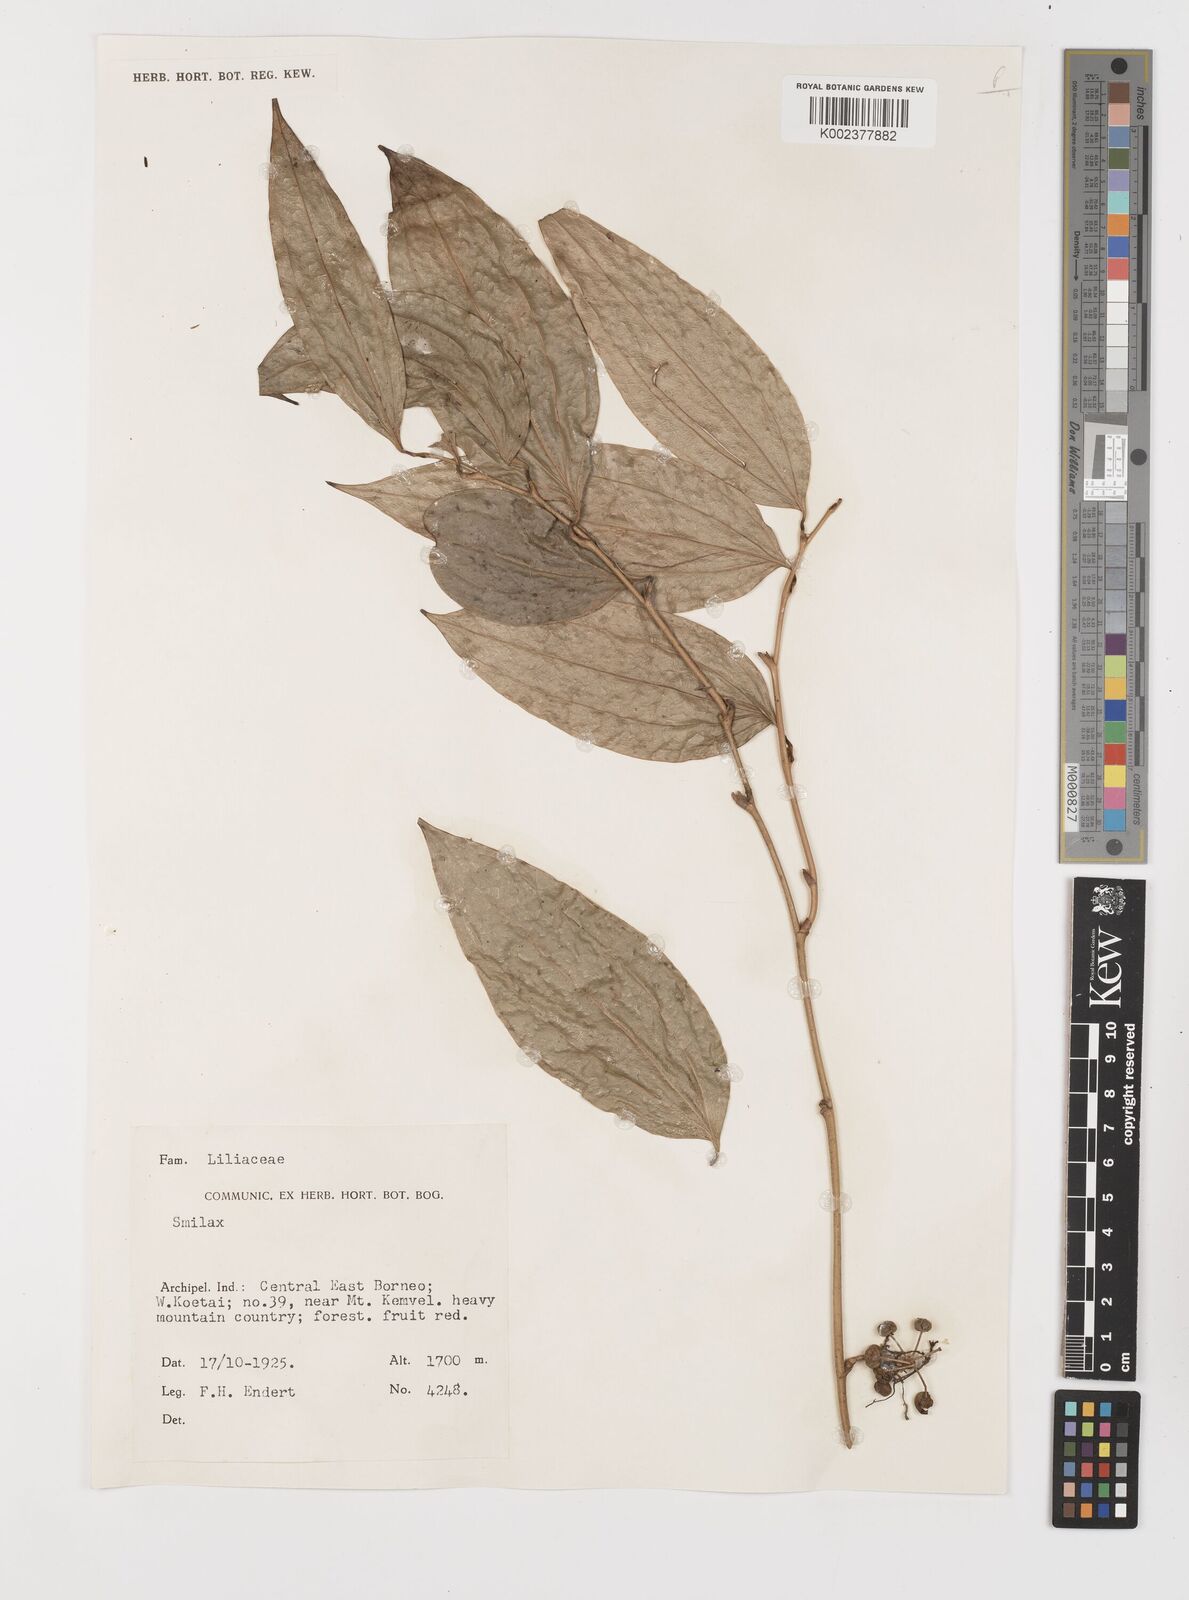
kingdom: Plantae
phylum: Tracheophyta
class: Liliopsida
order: Liliales
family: Smilacaceae
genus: Smilax
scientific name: Smilax
